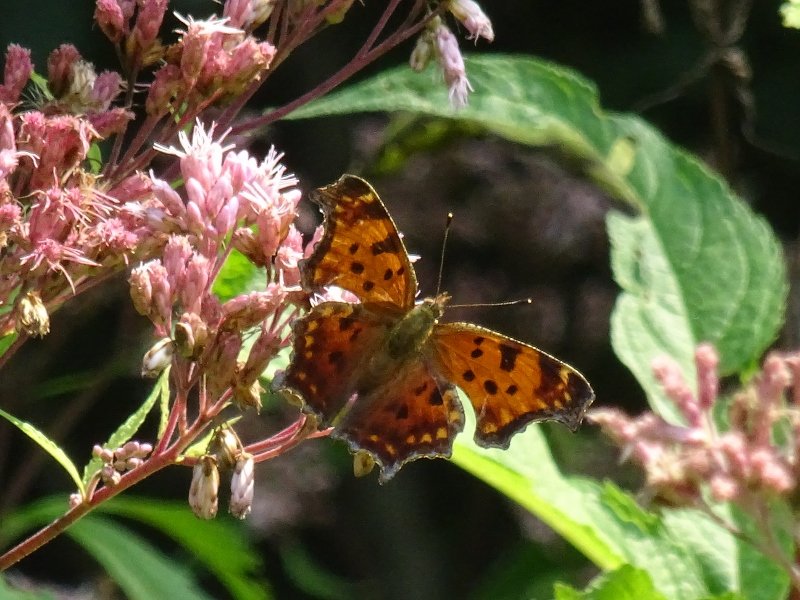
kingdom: Animalia
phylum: Arthropoda
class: Insecta
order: Lepidoptera
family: Nymphalidae
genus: Polygonia
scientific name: Polygonia comma
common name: Eastern Comma
